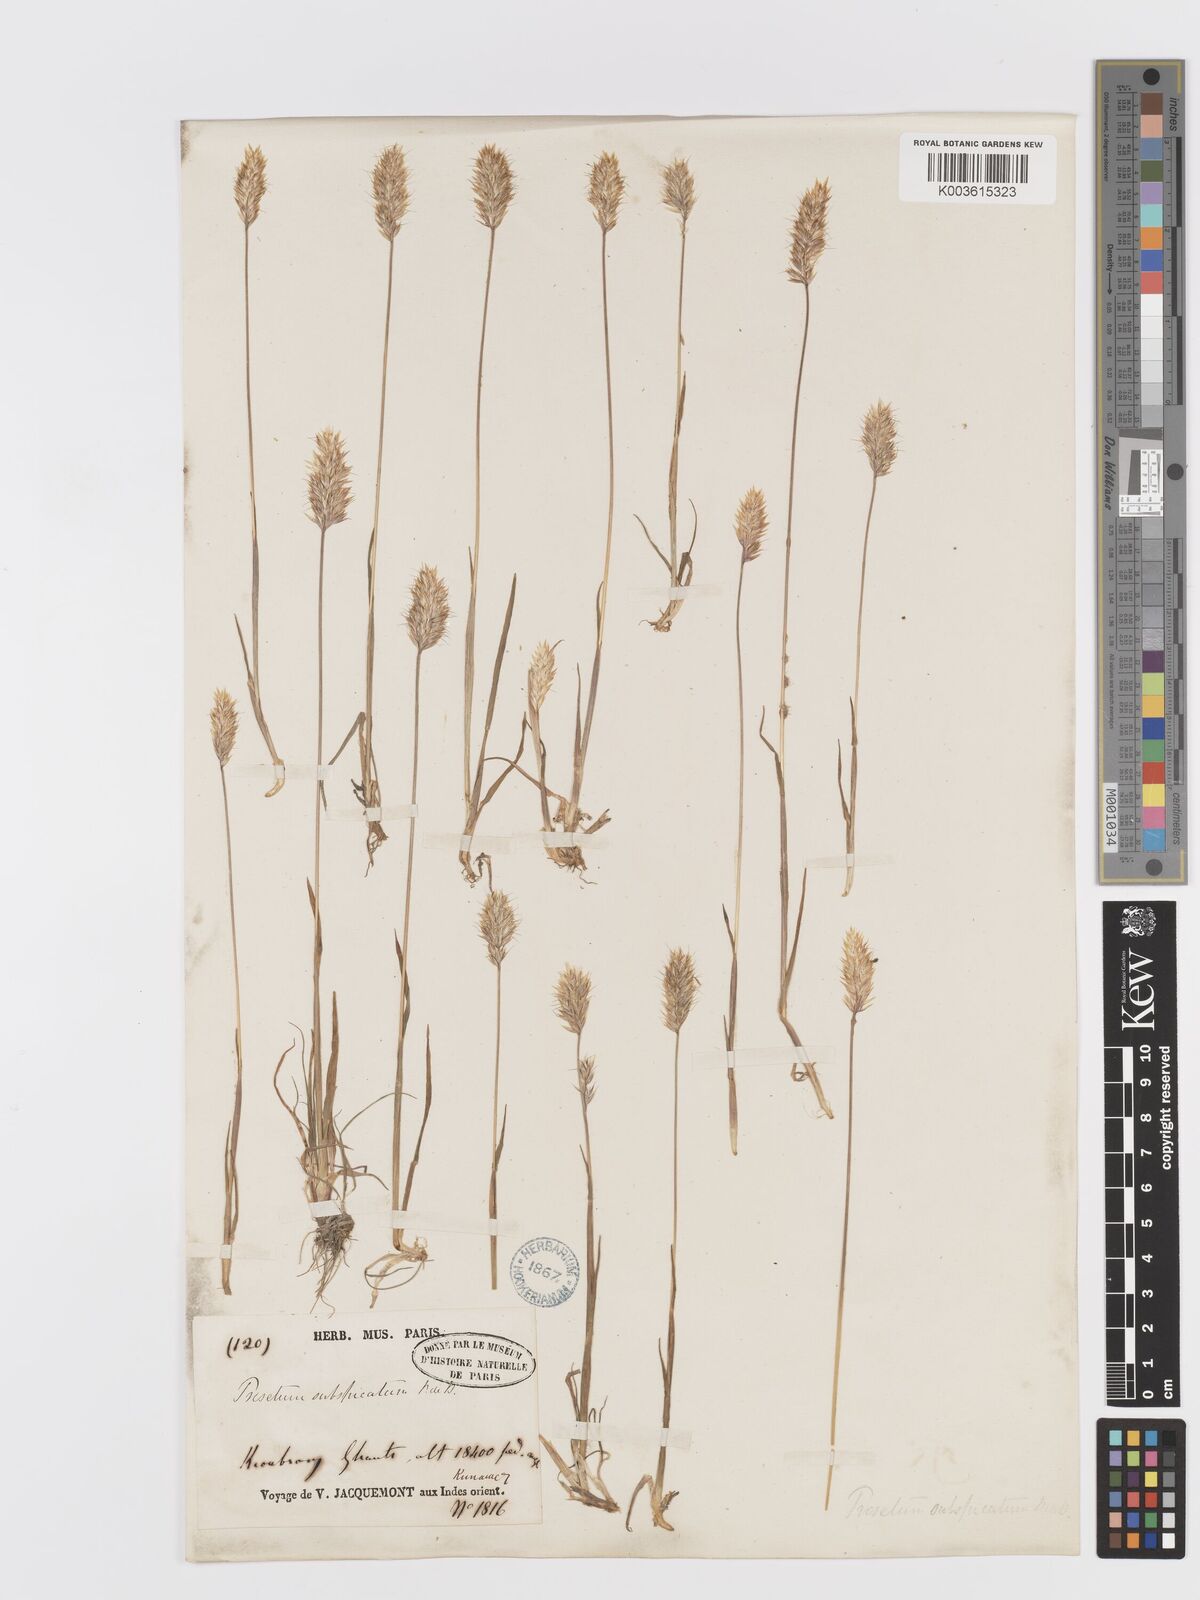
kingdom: Plantae
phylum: Tracheophyta
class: Liliopsida
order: Poales
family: Poaceae
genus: Koeleria
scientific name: Koeleria spicata
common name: Mountain trisetum
